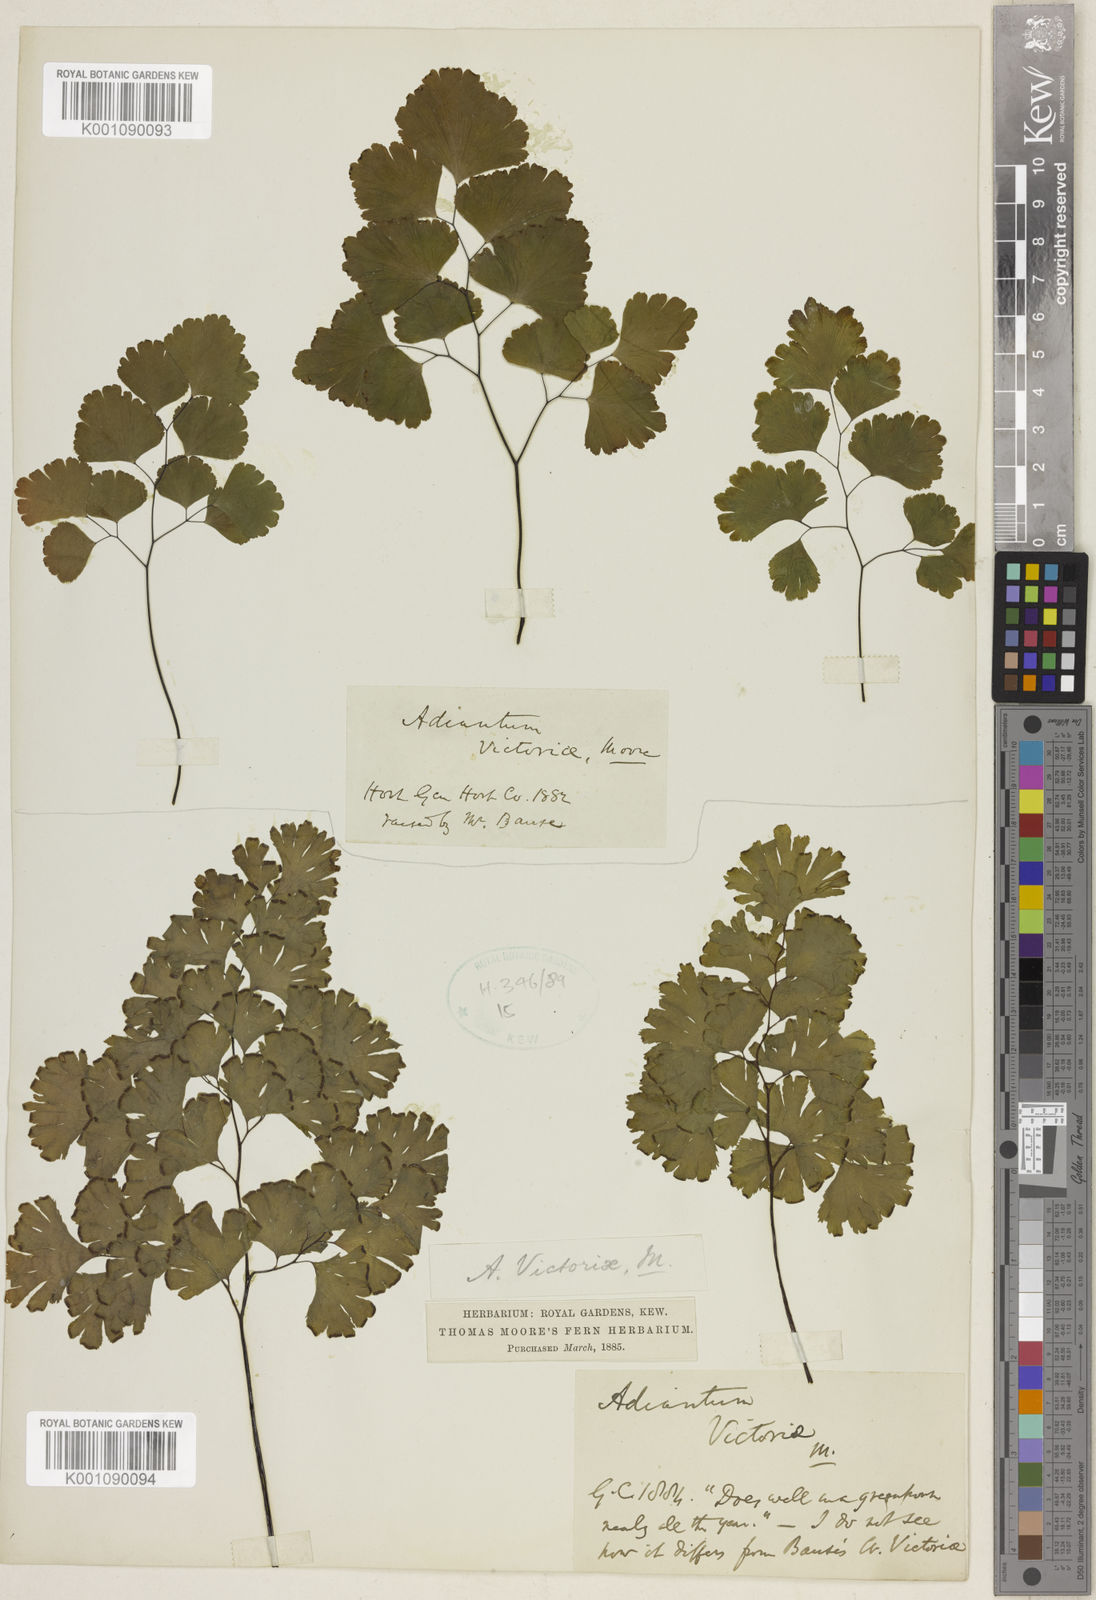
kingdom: Plantae
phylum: Tracheophyta
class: Polypodiopsida
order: Polypodiales
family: Pteridaceae
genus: Adiantum
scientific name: Adiantum victoriae
